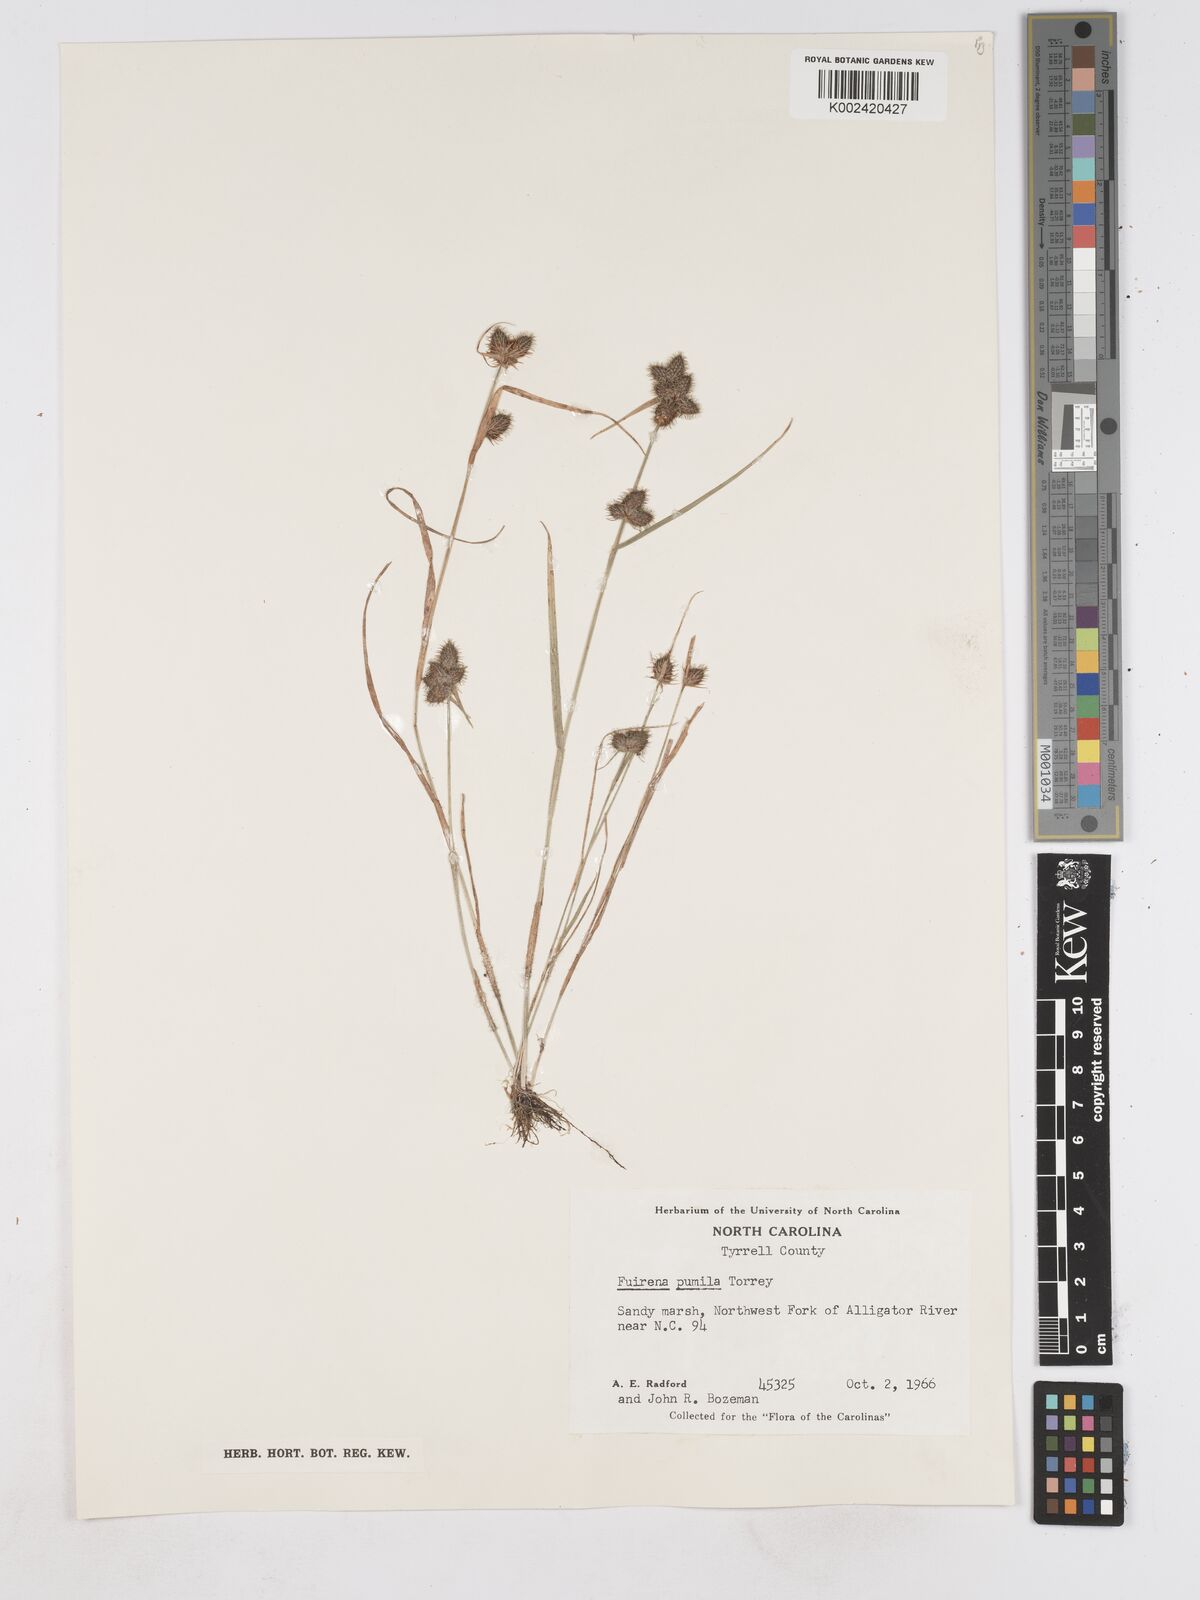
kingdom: Plantae
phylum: Tracheophyta
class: Liliopsida
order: Poales
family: Cyperaceae
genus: Fuirena
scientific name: Fuirena pumila
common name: Dwarf umbrella sedge
